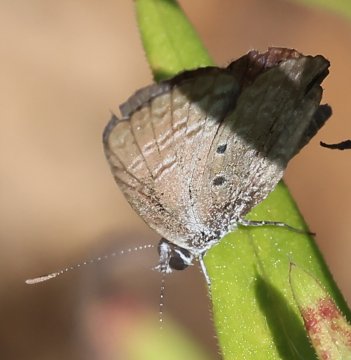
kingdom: Animalia
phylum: Arthropoda
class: Insecta
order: Lepidoptera
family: Lycaenidae
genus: Hemiargus
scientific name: Hemiargus ceraunus
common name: Ceraunus Blue
